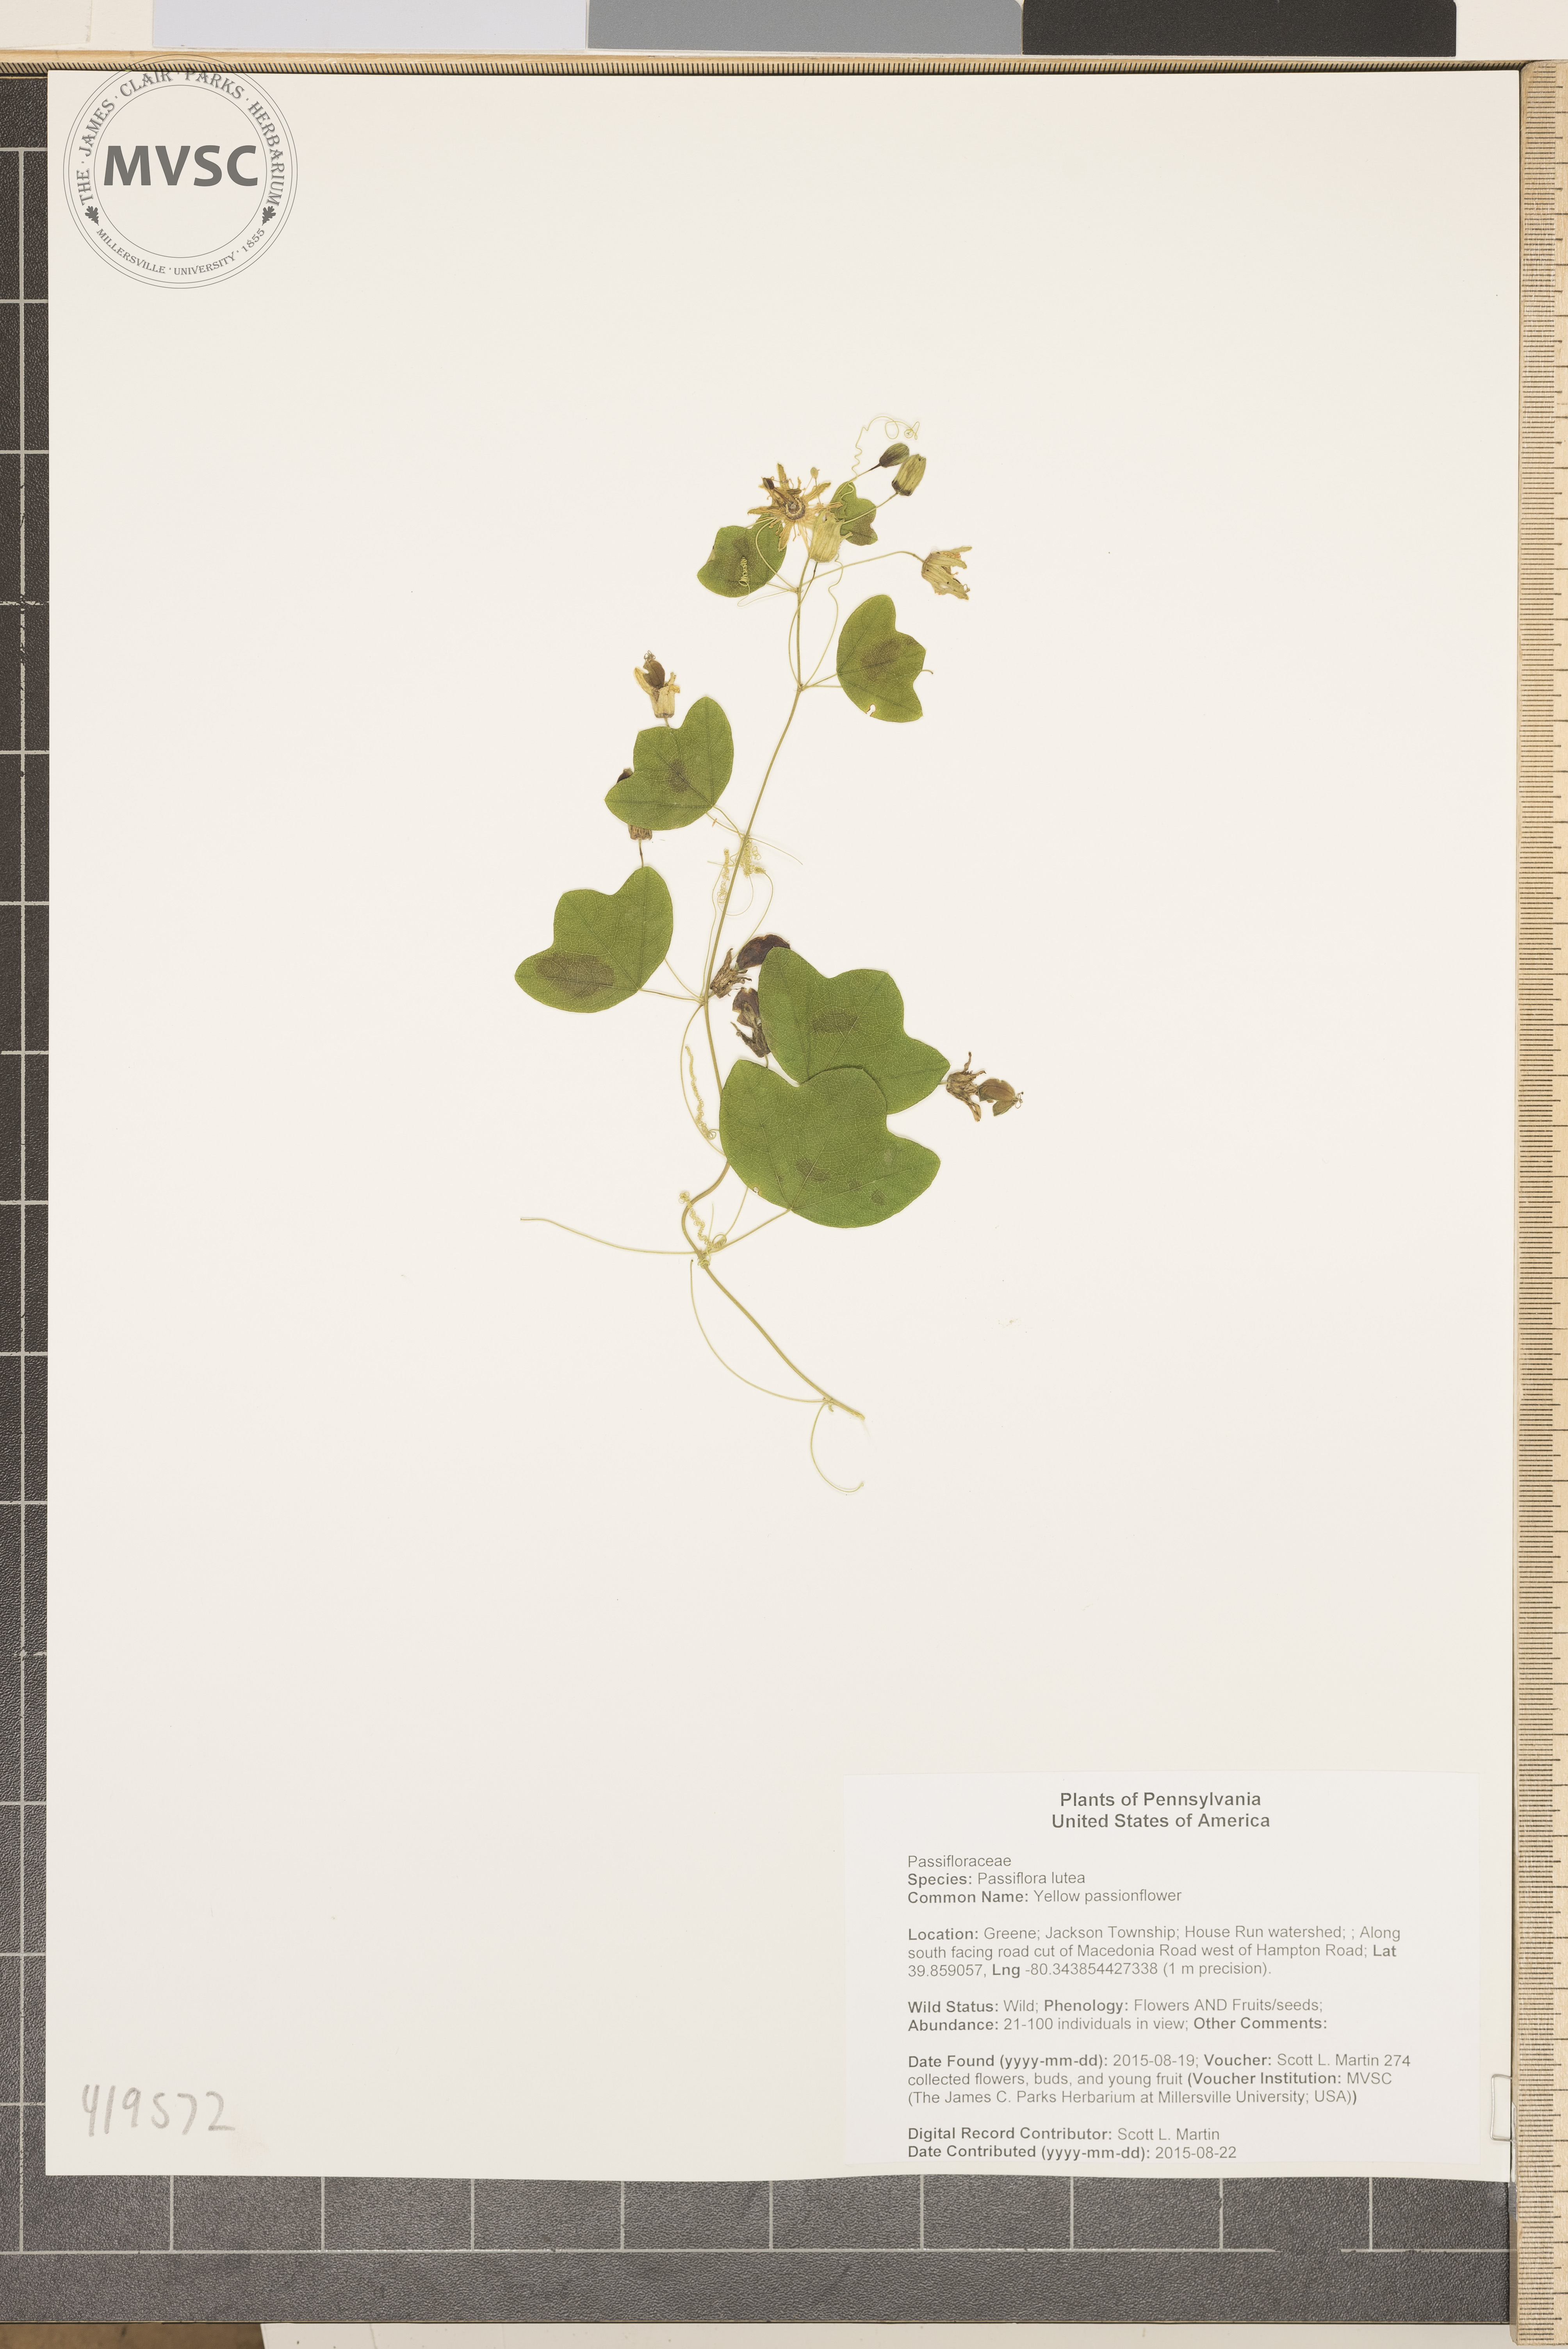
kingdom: Plantae
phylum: Tracheophyta
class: Magnoliopsida
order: Malpighiales
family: Passifloraceae
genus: Passiflora
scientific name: Passiflora lutea
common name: Yellow passionflower
